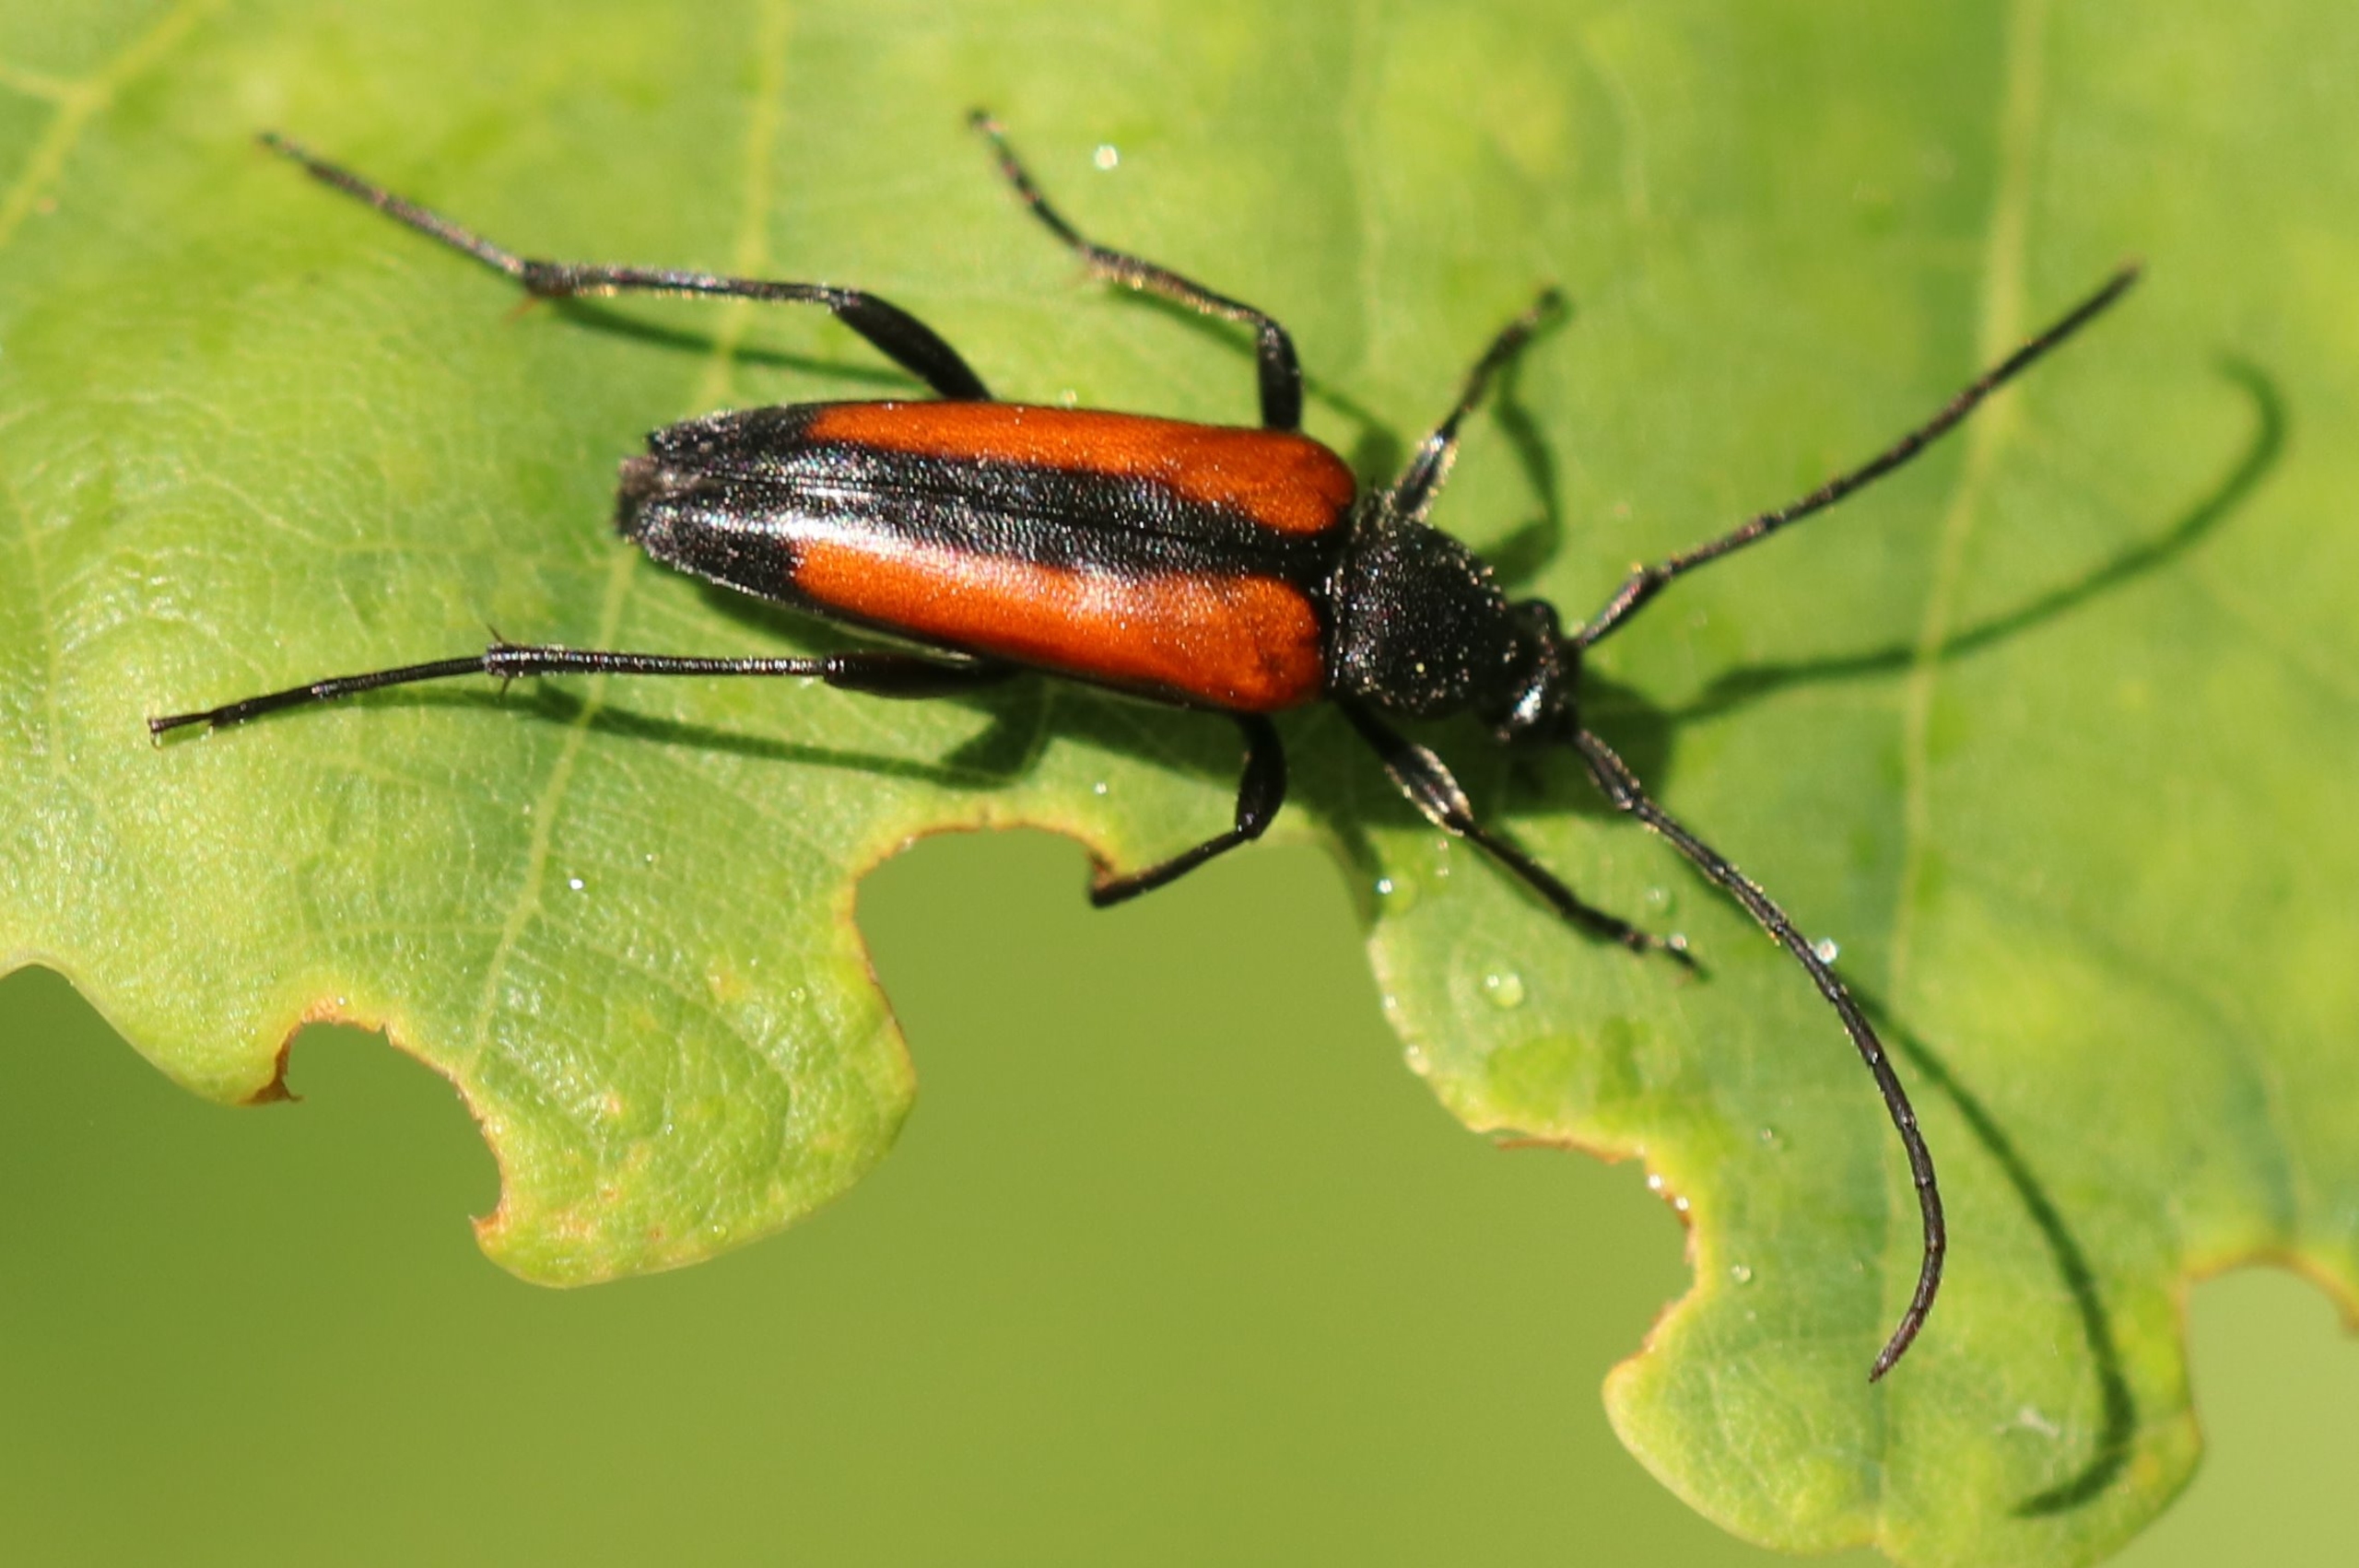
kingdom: Animalia
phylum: Arthropoda
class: Insecta
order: Coleoptera
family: Cerambycidae
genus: Stenurella
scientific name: Stenurella melanura
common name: Sortsømmet blomsterbuk
